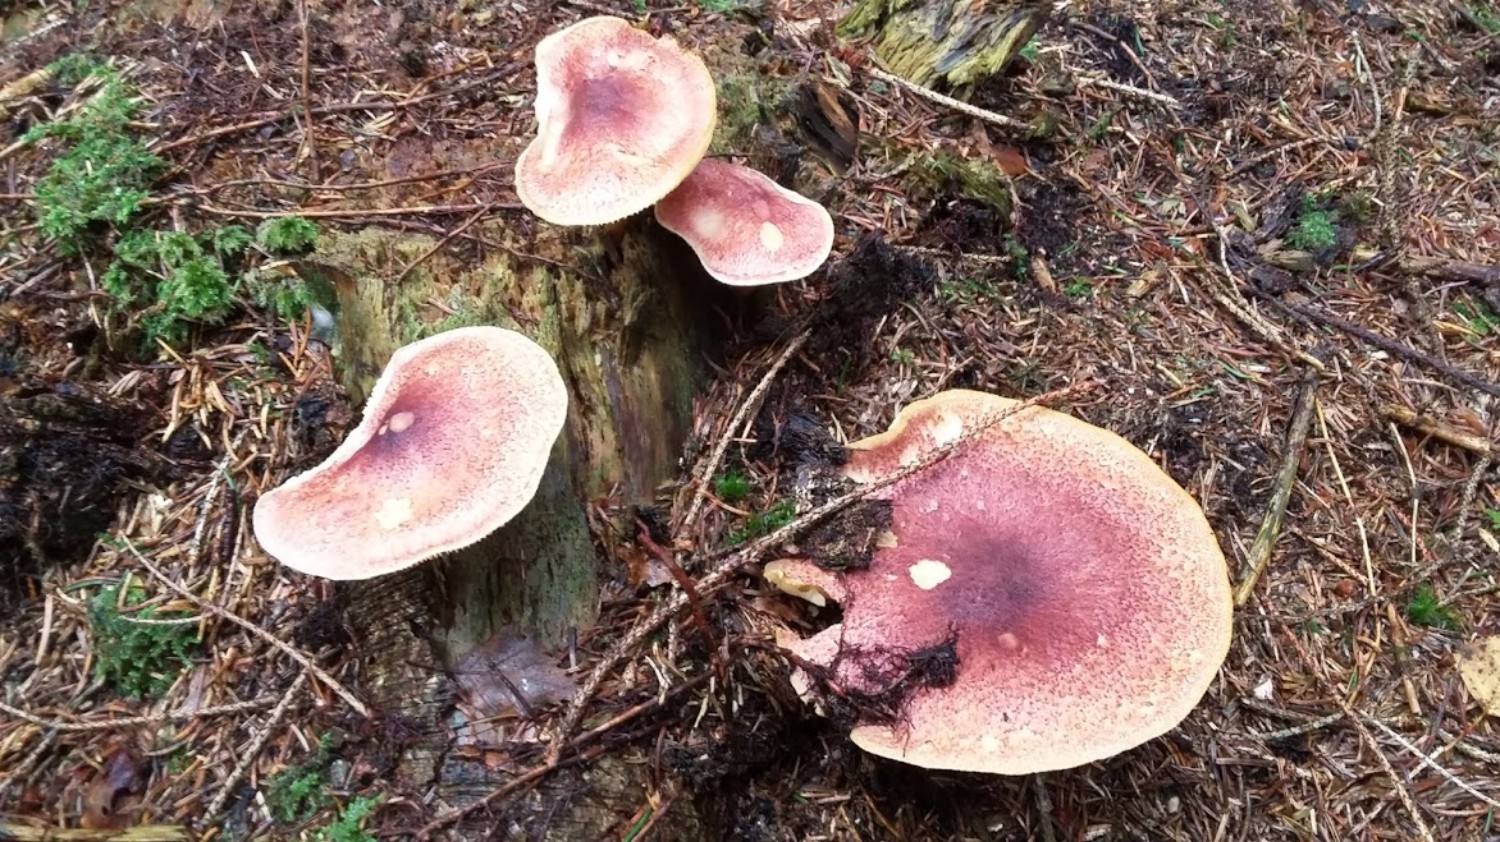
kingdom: Fungi
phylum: Basidiomycota
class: Agaricomycetes
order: Agaricales
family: Tricholomataceae
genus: Tricholomopsis
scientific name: Tricholomopsis rutilans
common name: purpur-væbnerhat
